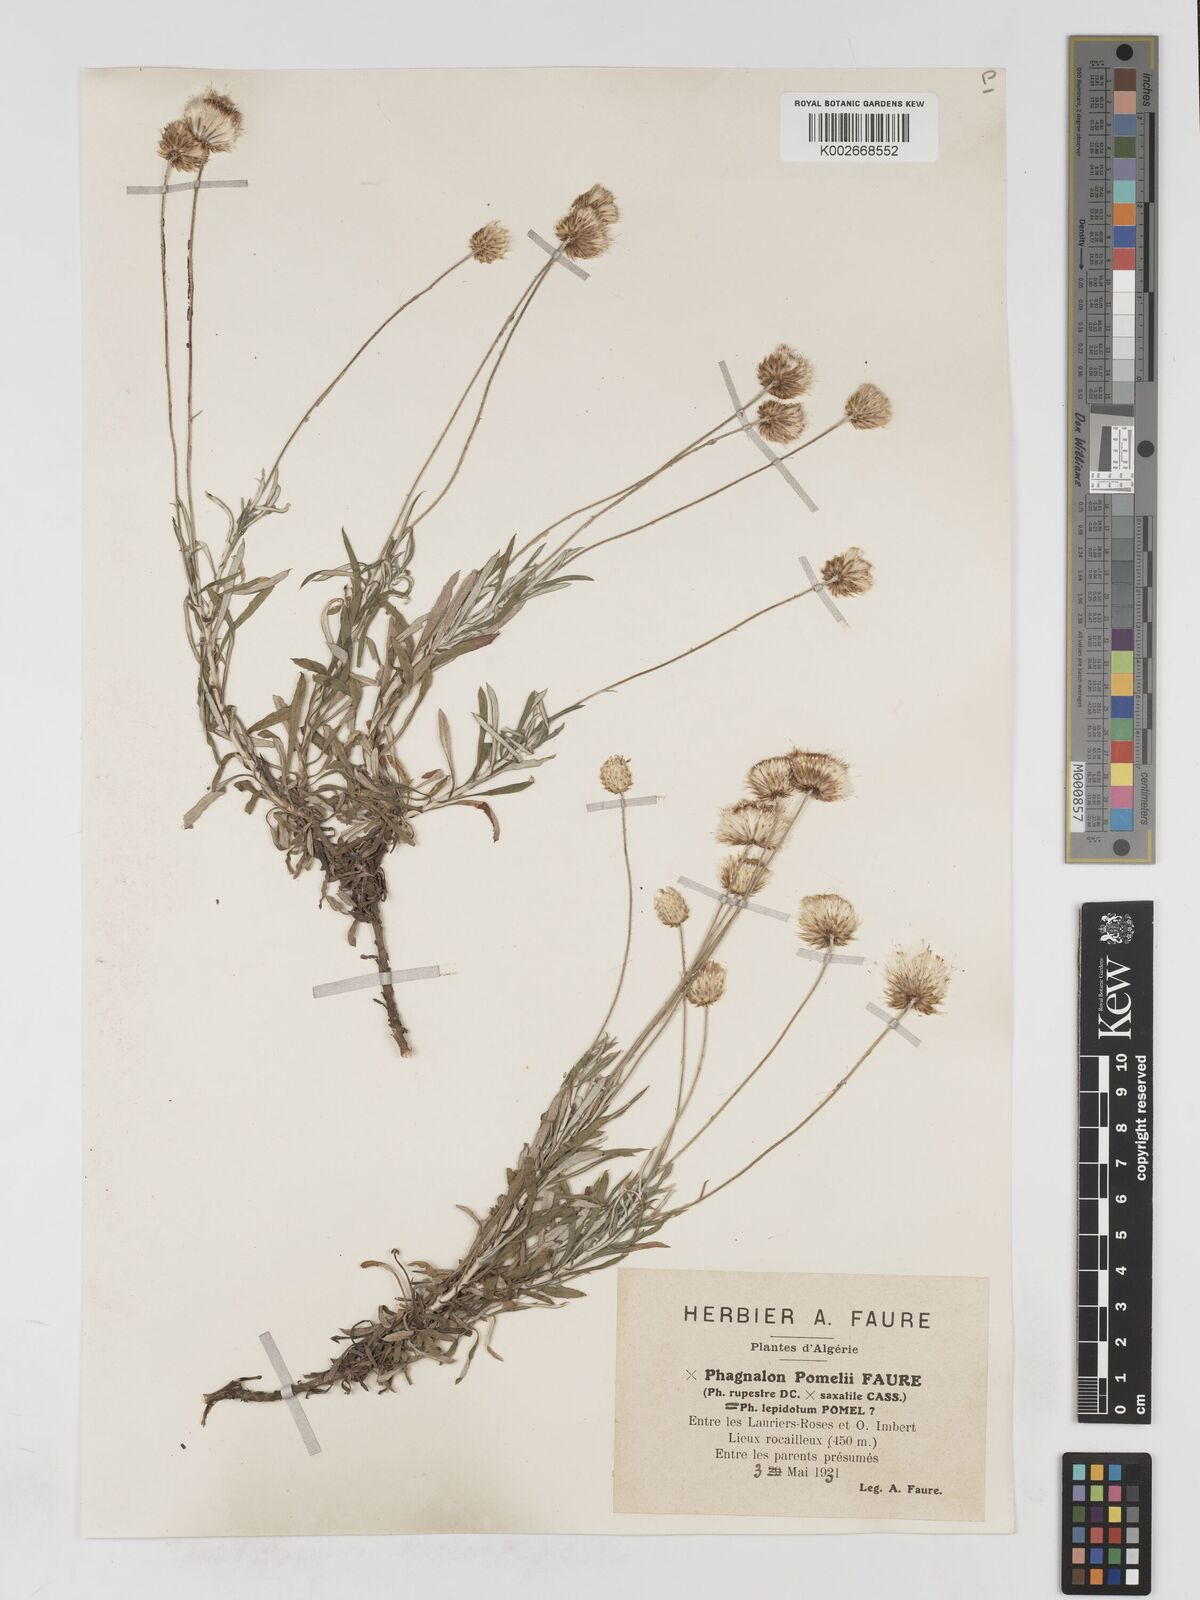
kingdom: Plantae
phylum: Tracheophyta
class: Magnoliopsida
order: Asterales
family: Asteraceae
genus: Phagnalon
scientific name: Phagnalon pomelii
